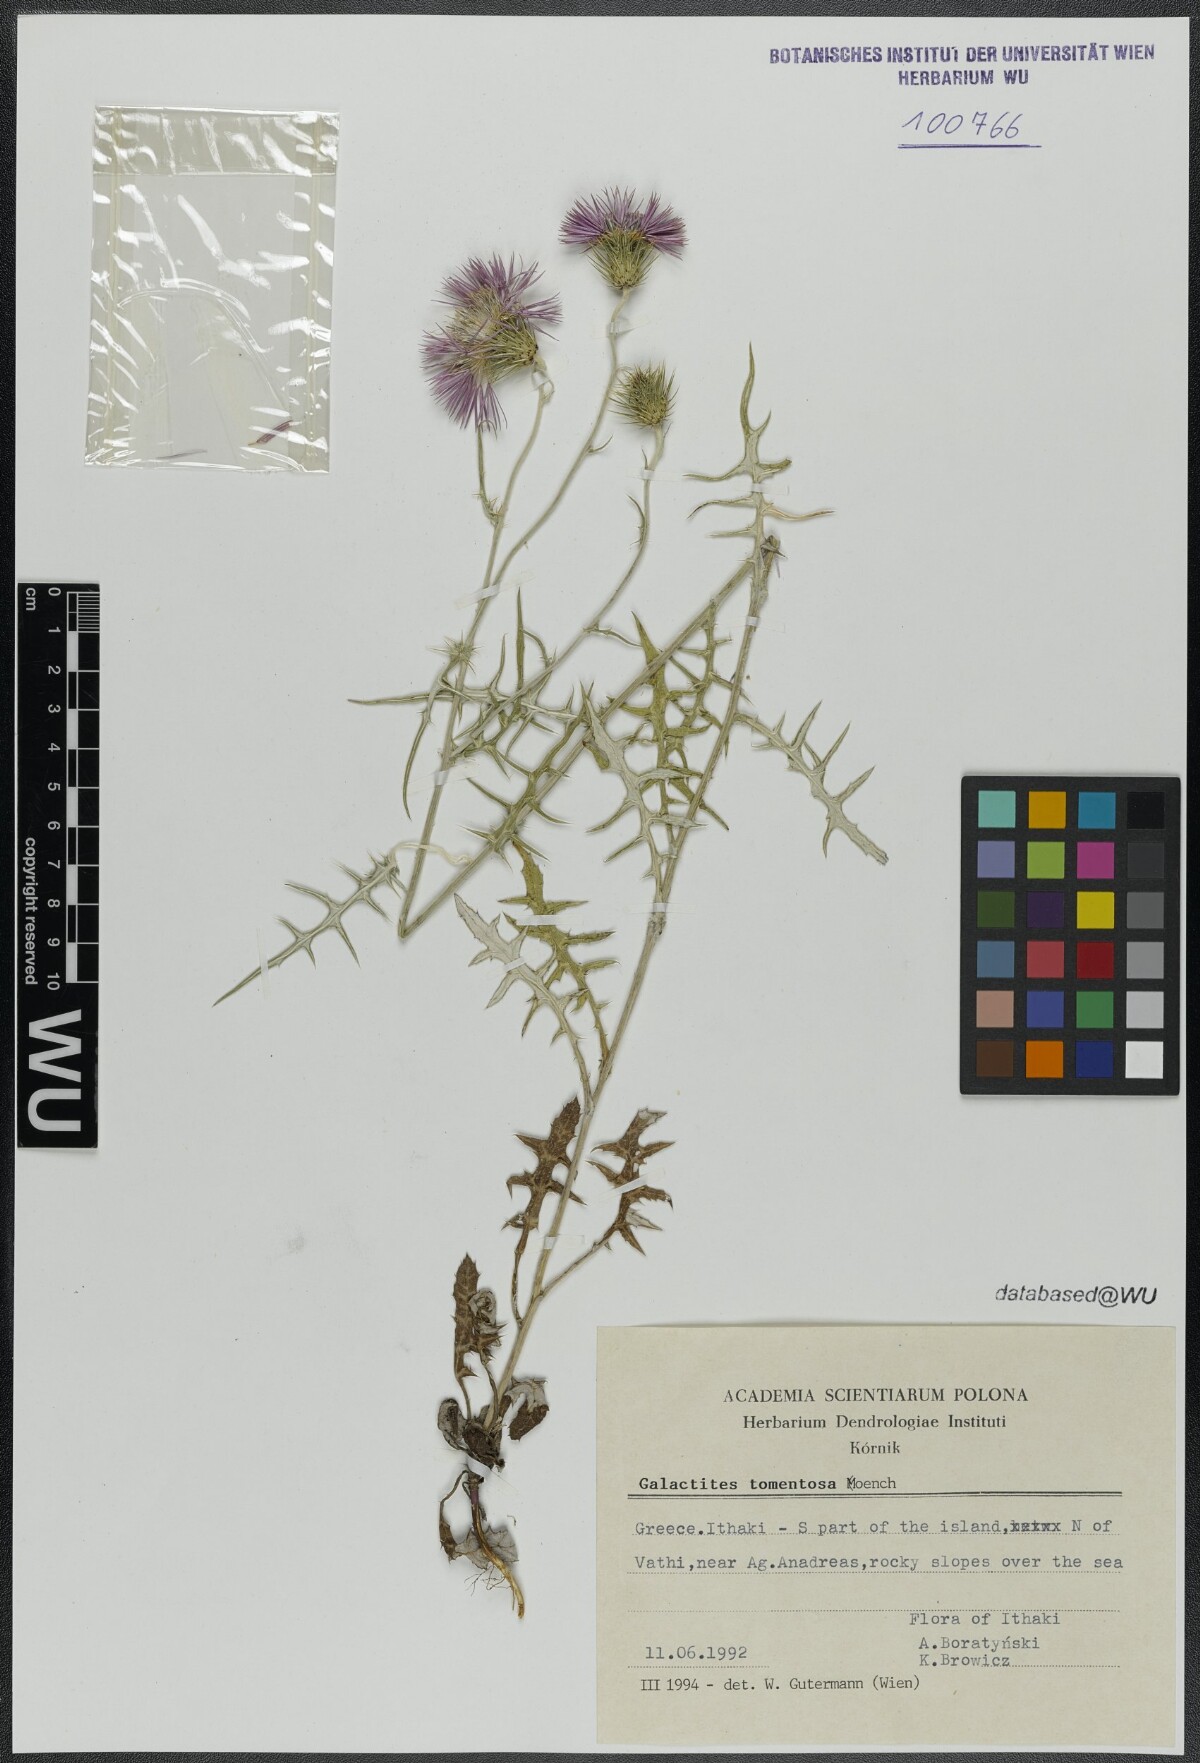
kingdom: Plantae
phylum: Tracheophyta
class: Magnoliopsida
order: Asterales
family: Asteraceae
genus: Galactites
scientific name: Galactites tomentosa
